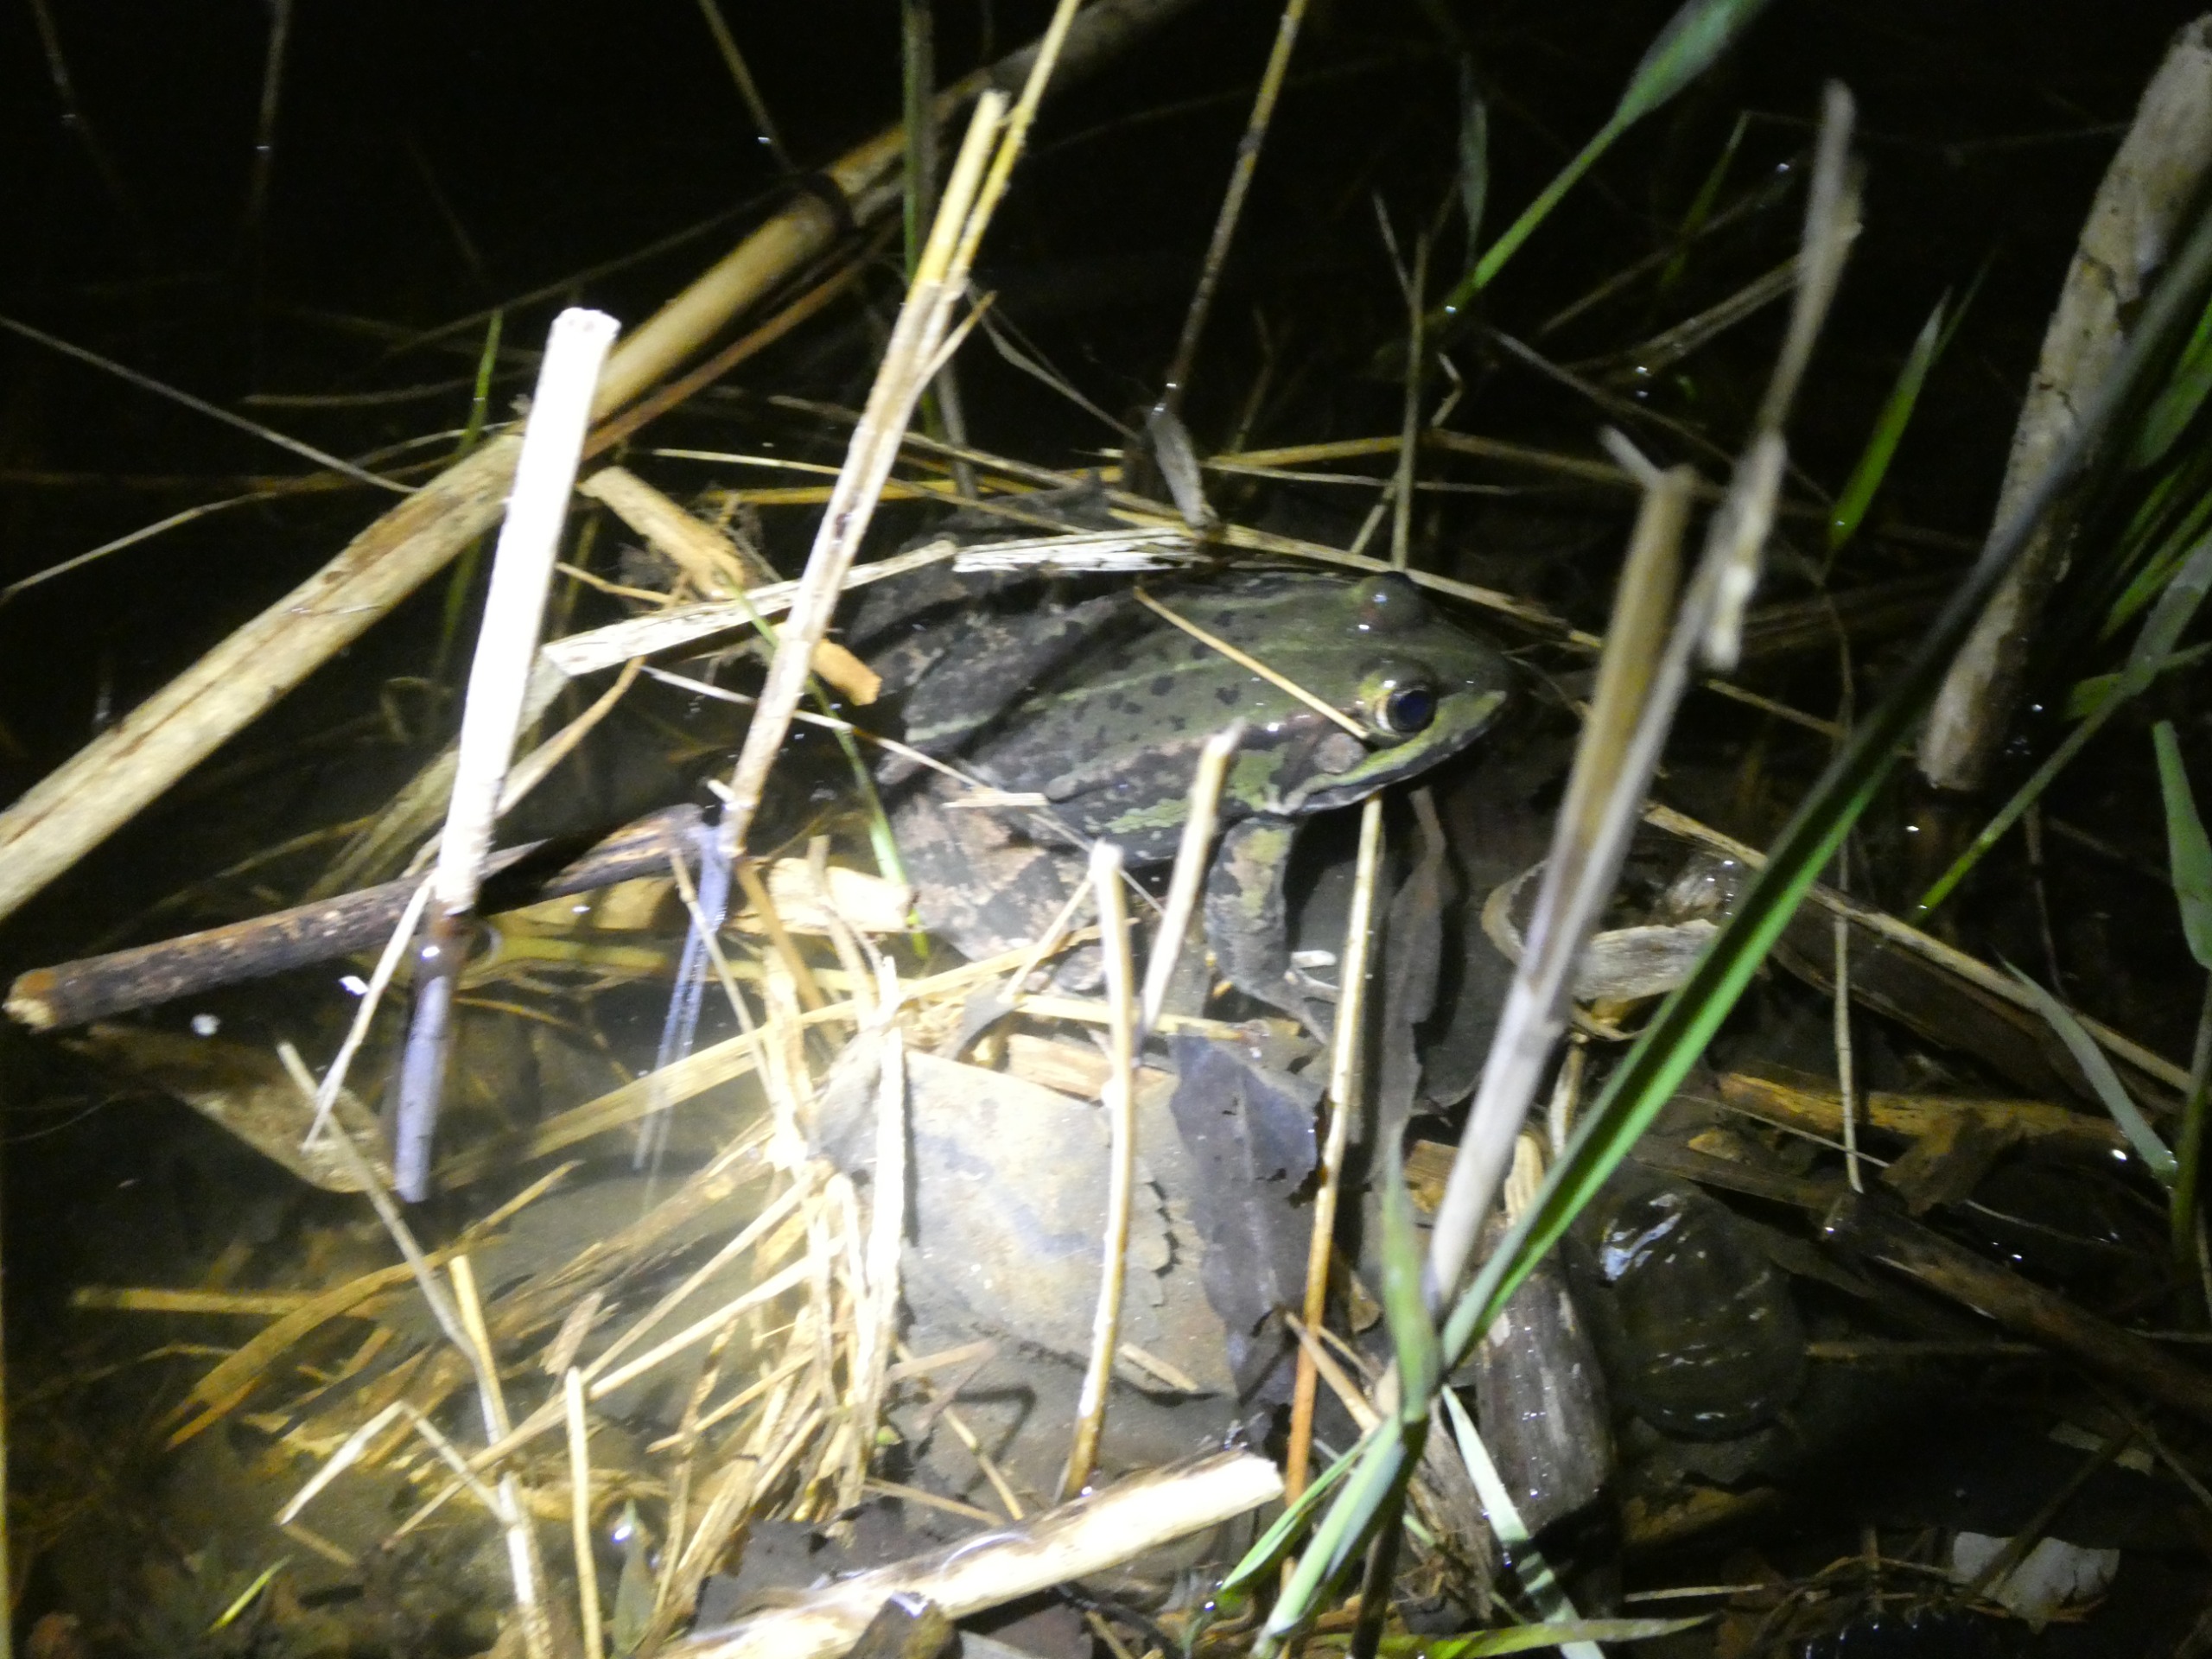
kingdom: Animalia
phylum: Chordata
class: Amphibia
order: Anura
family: Ranidae
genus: Pelophylax
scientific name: Pelophylax lessonae
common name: Grøn frø
